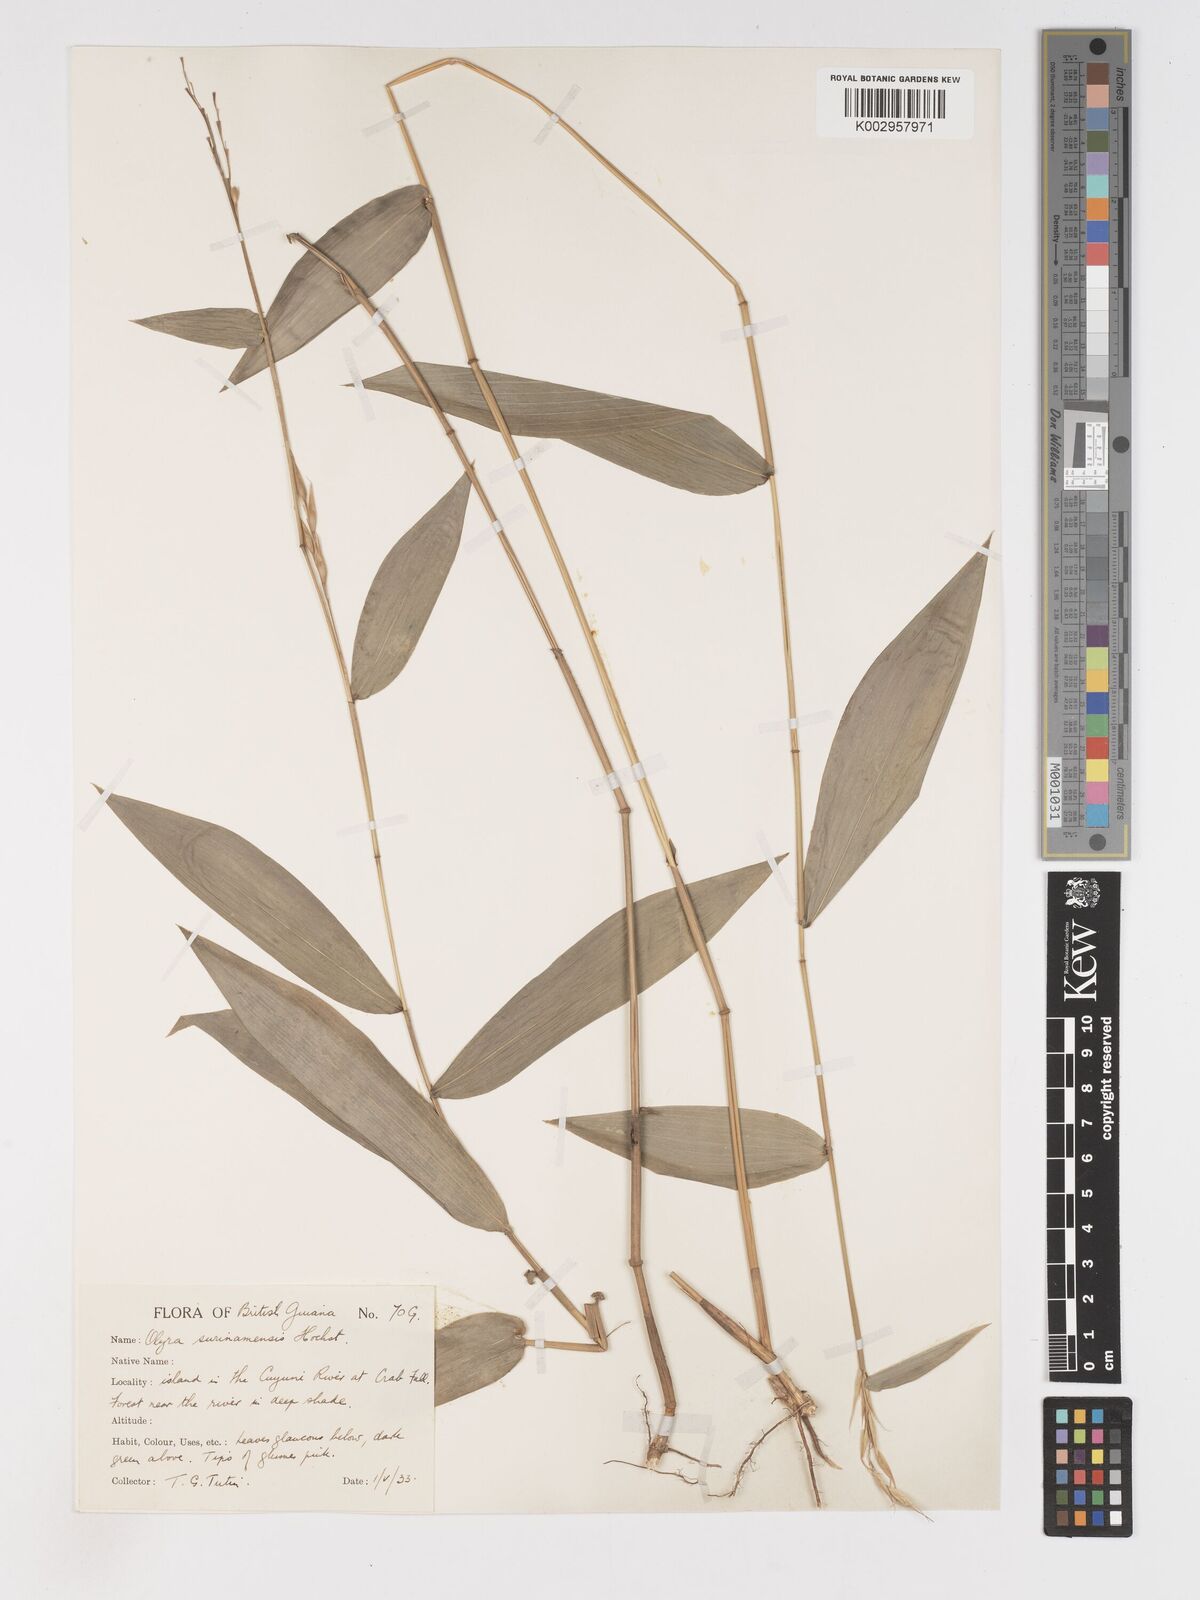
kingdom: Plantae
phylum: Tracheophyta
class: Liliopsida
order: Poales
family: Poaceae
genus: Olyra
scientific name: Olyra longifolia
